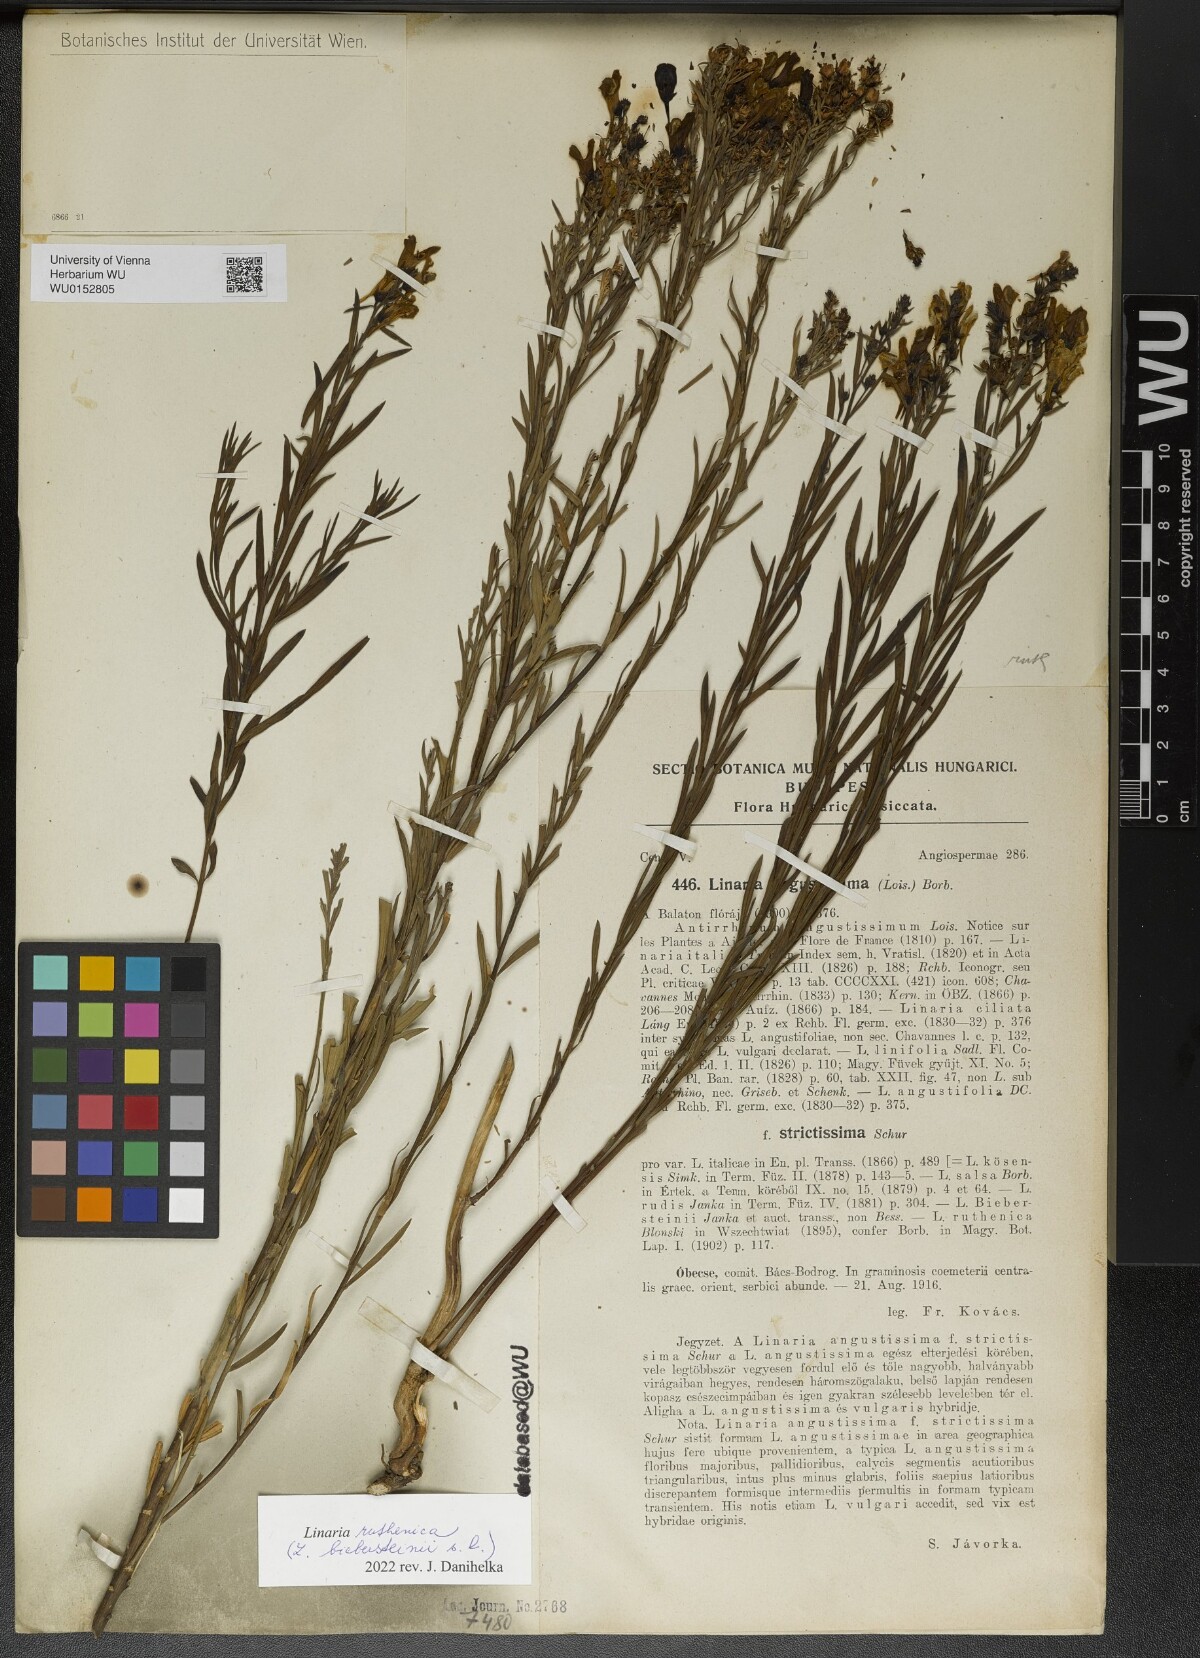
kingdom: Plantae
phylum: Tracheophyta
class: Magnoliopsida
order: Lamiales
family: Plantaginaceae
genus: Linaria
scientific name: Linaria biebersteinii
